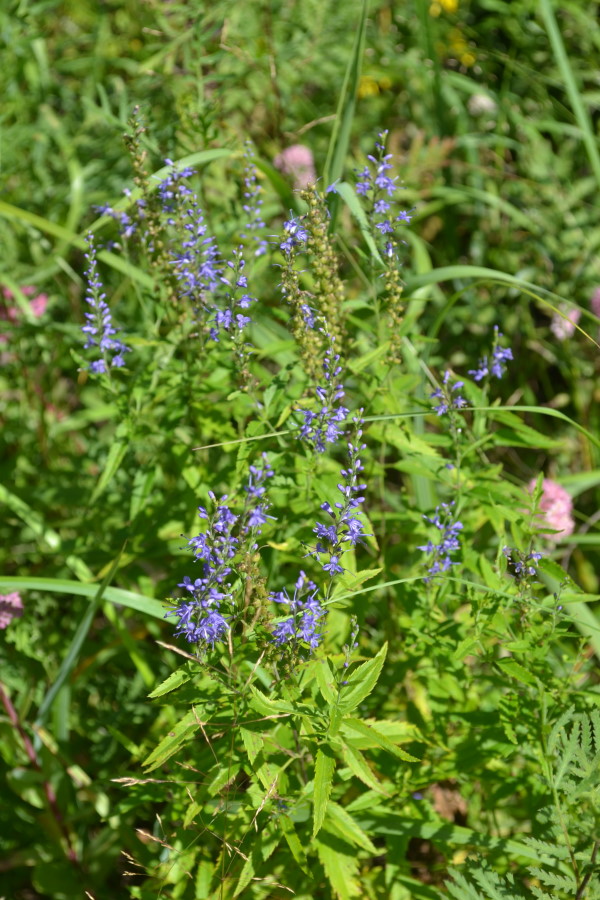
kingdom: Plantae
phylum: Tracheophyta
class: Magnoliopsida
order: Lamiales
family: Plantaginaceae
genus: Veronica
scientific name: Veronica longifolia
